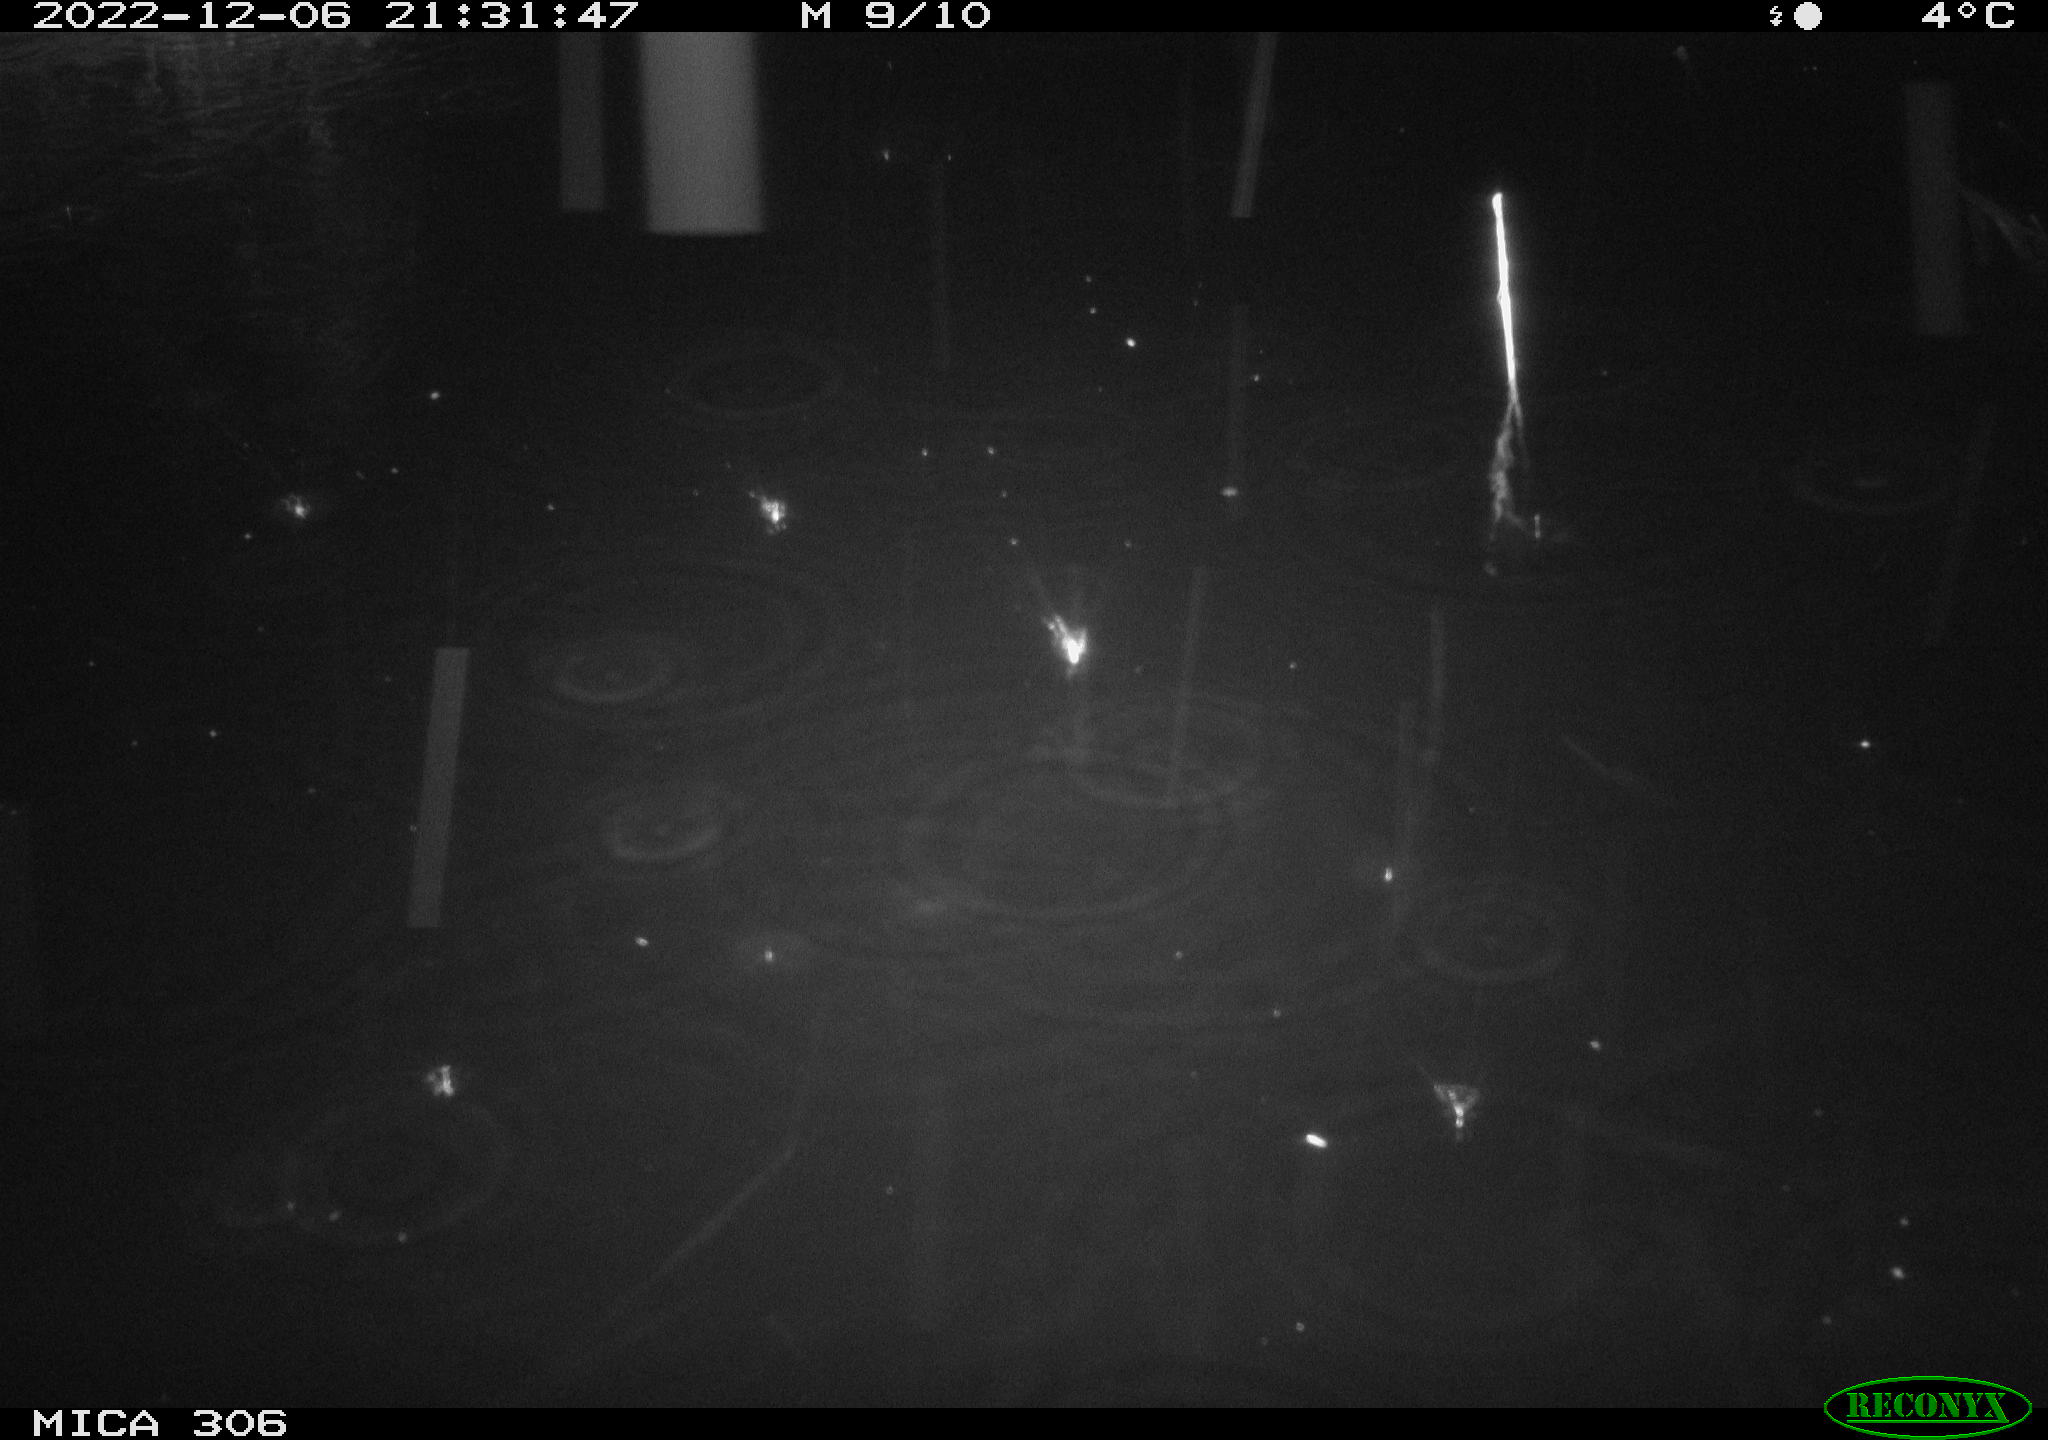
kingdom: Animalia
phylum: Chordata
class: Mammalia
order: Rodentia
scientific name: Rodentia
